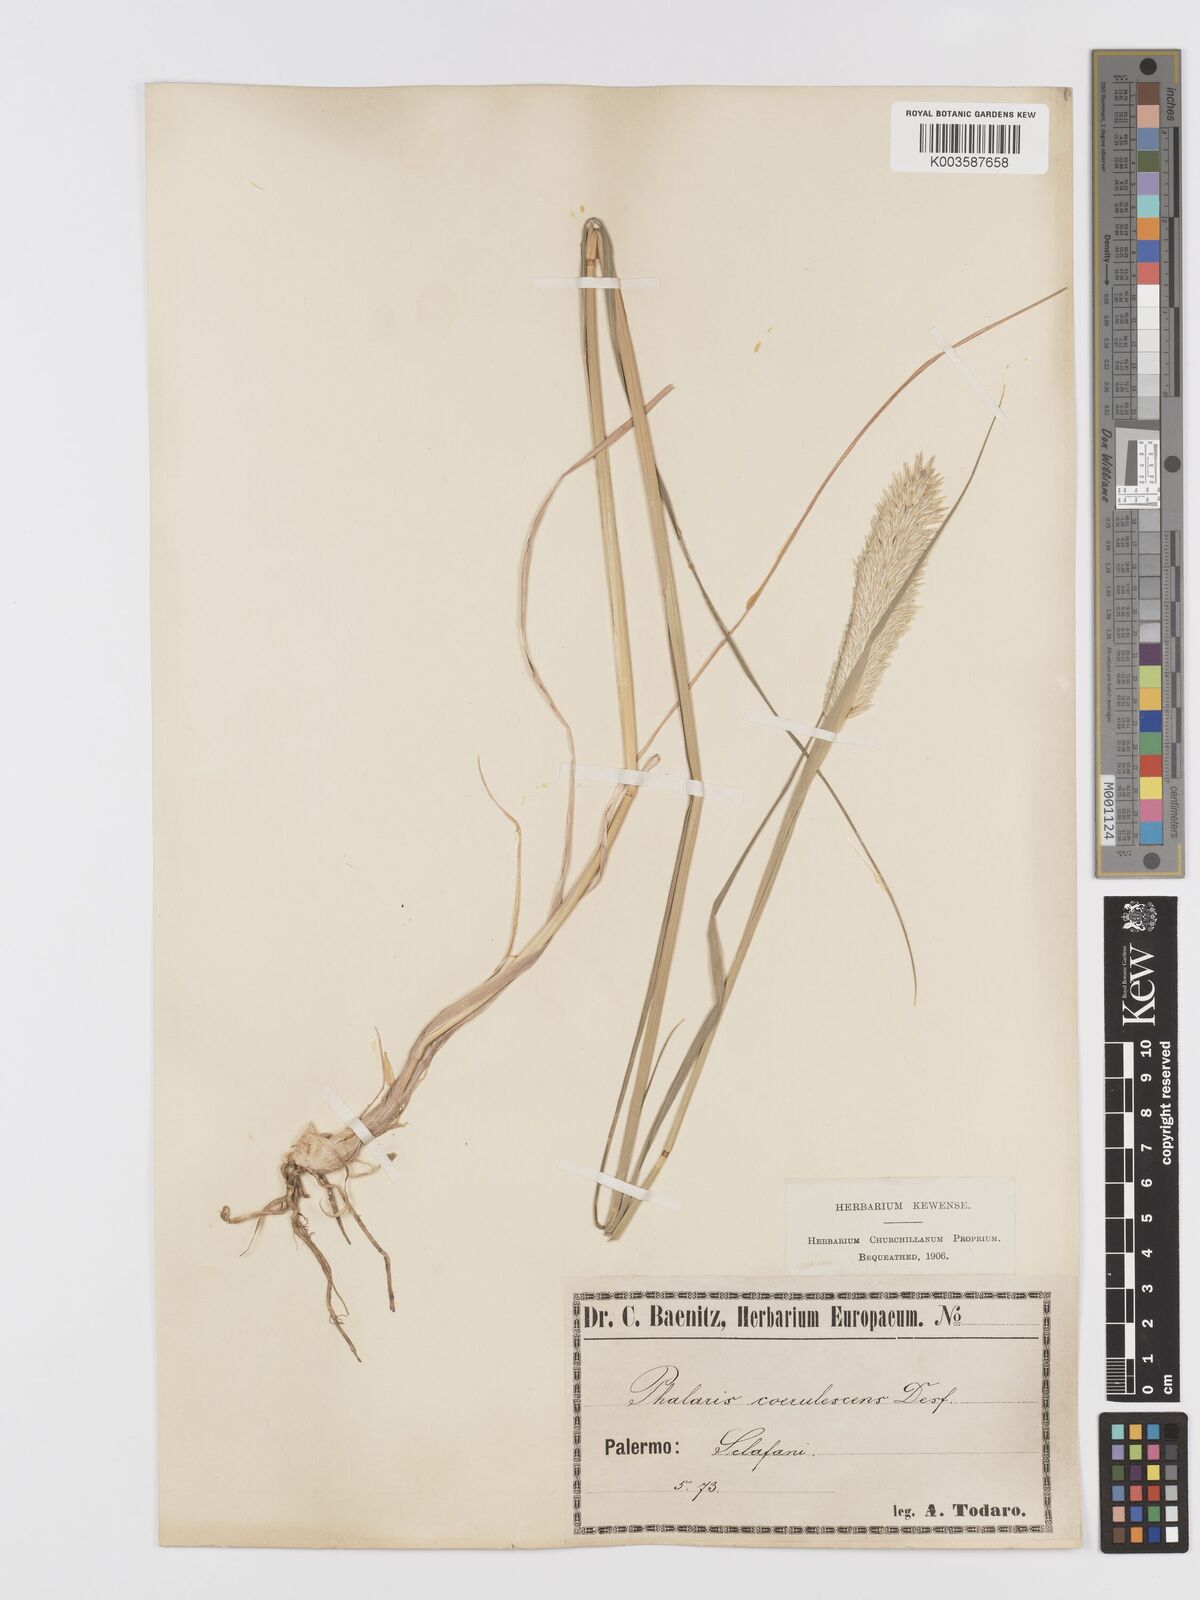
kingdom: Plantae
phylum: Tracheophyta
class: Liliopsida
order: Poales
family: Poaceae
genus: Phalaris
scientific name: Phalaris coerulescens
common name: Sunolgrass
